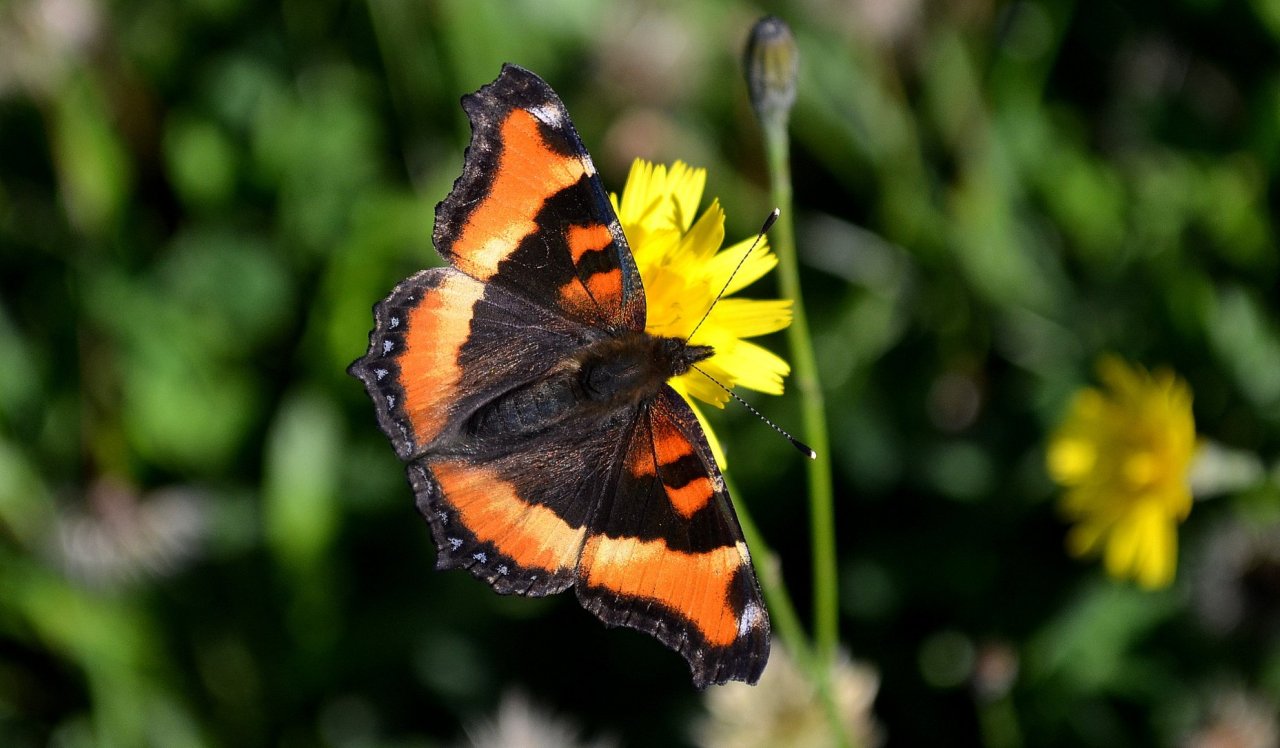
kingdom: Animalia
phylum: Arthropoda
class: Insecta
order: Lepidoptera
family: Nymphalidae
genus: Aglais
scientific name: Aglais milberti
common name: Milbert's Tortoiseshell
